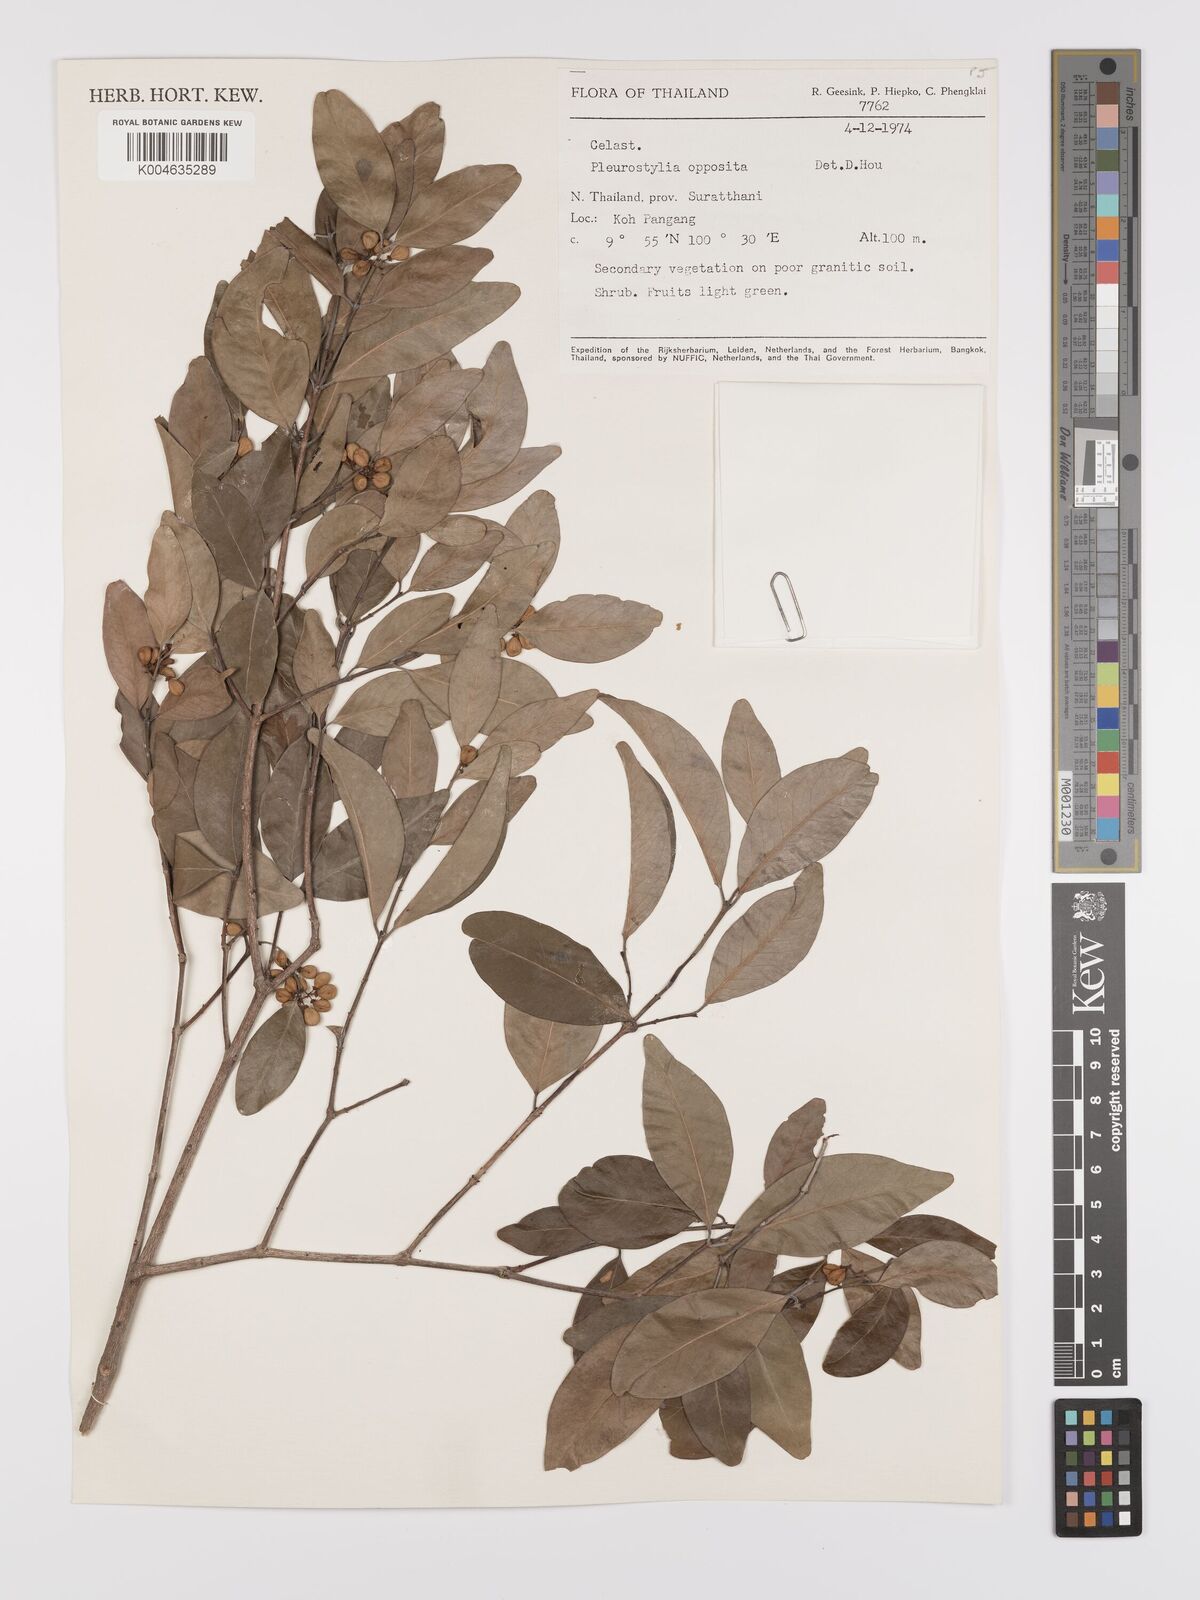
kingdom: Plantae
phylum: Tracheophyta
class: Magnoliopsida
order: Celastrales
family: Celastraceae
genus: Pleurostylia
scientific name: Pleurostylia opposita
